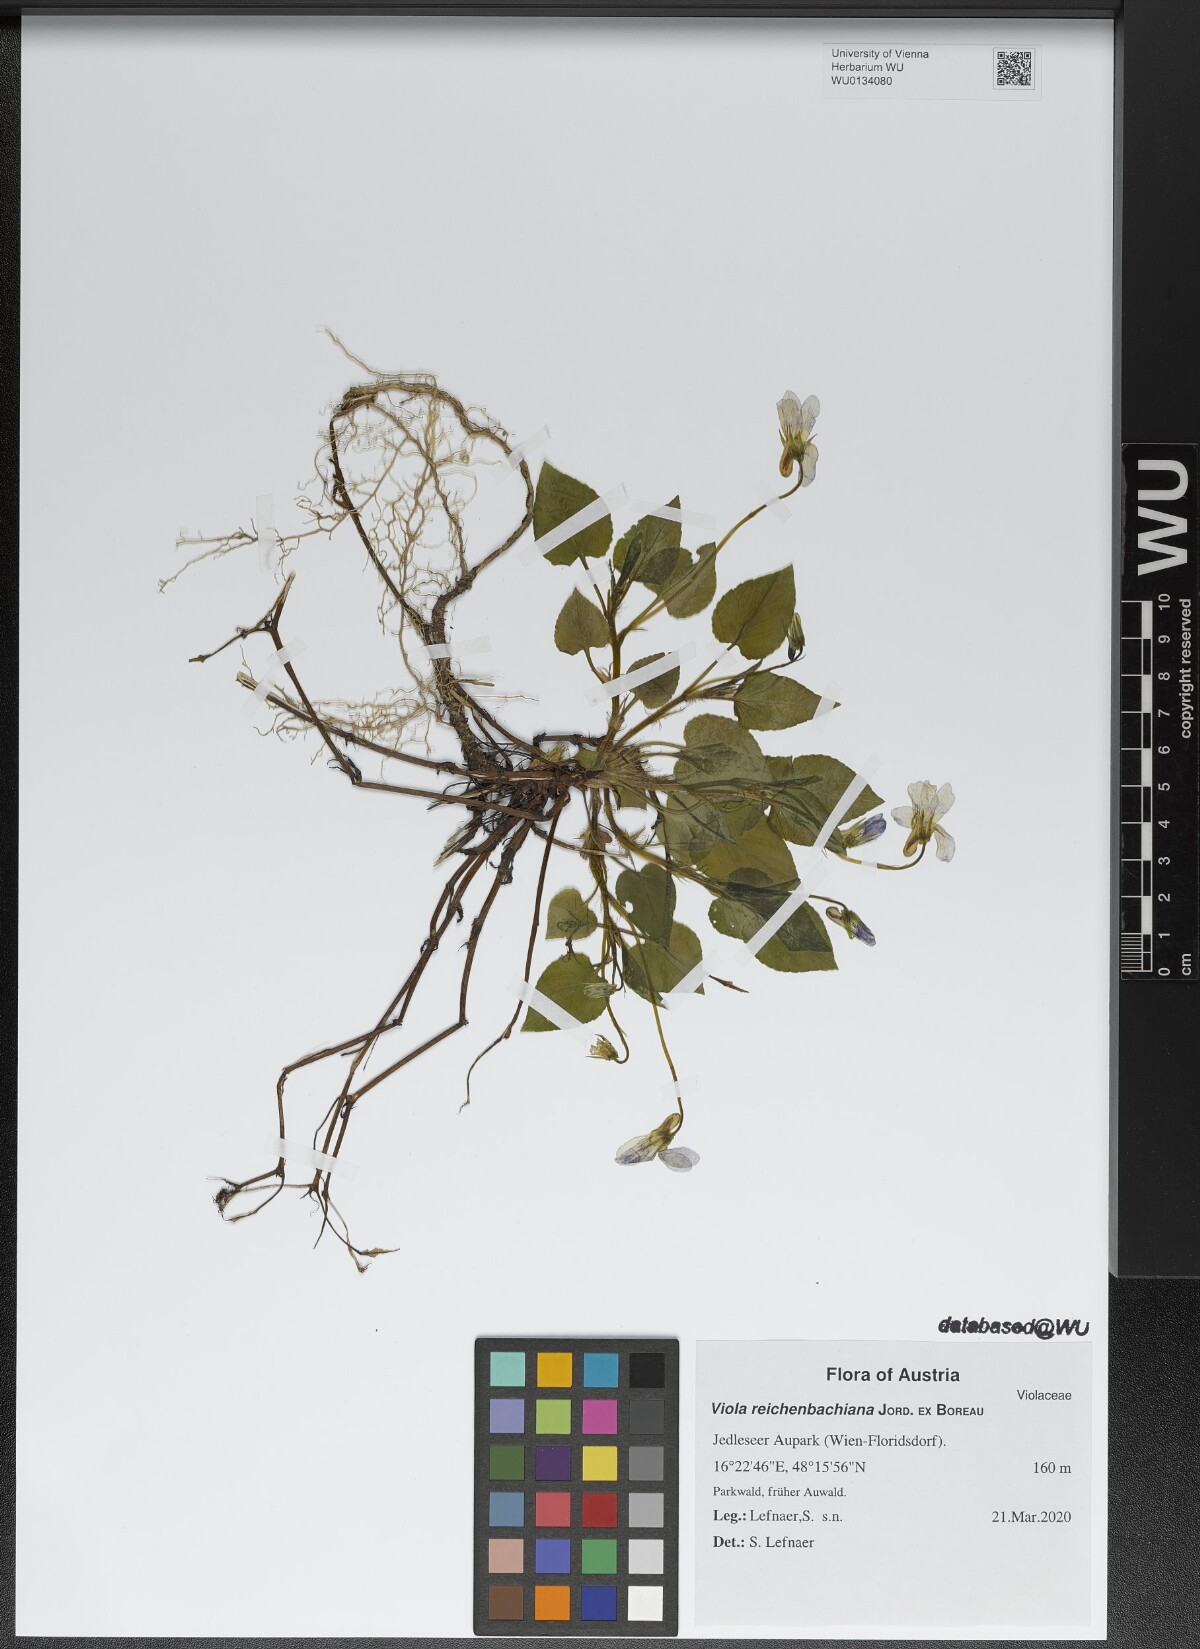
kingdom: Plantae
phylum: Tracheophyta
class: Magnoliopsida
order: Malpighiales
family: Violaceae
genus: Viola
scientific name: Viola reichenbachiana
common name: Early dog-violet
